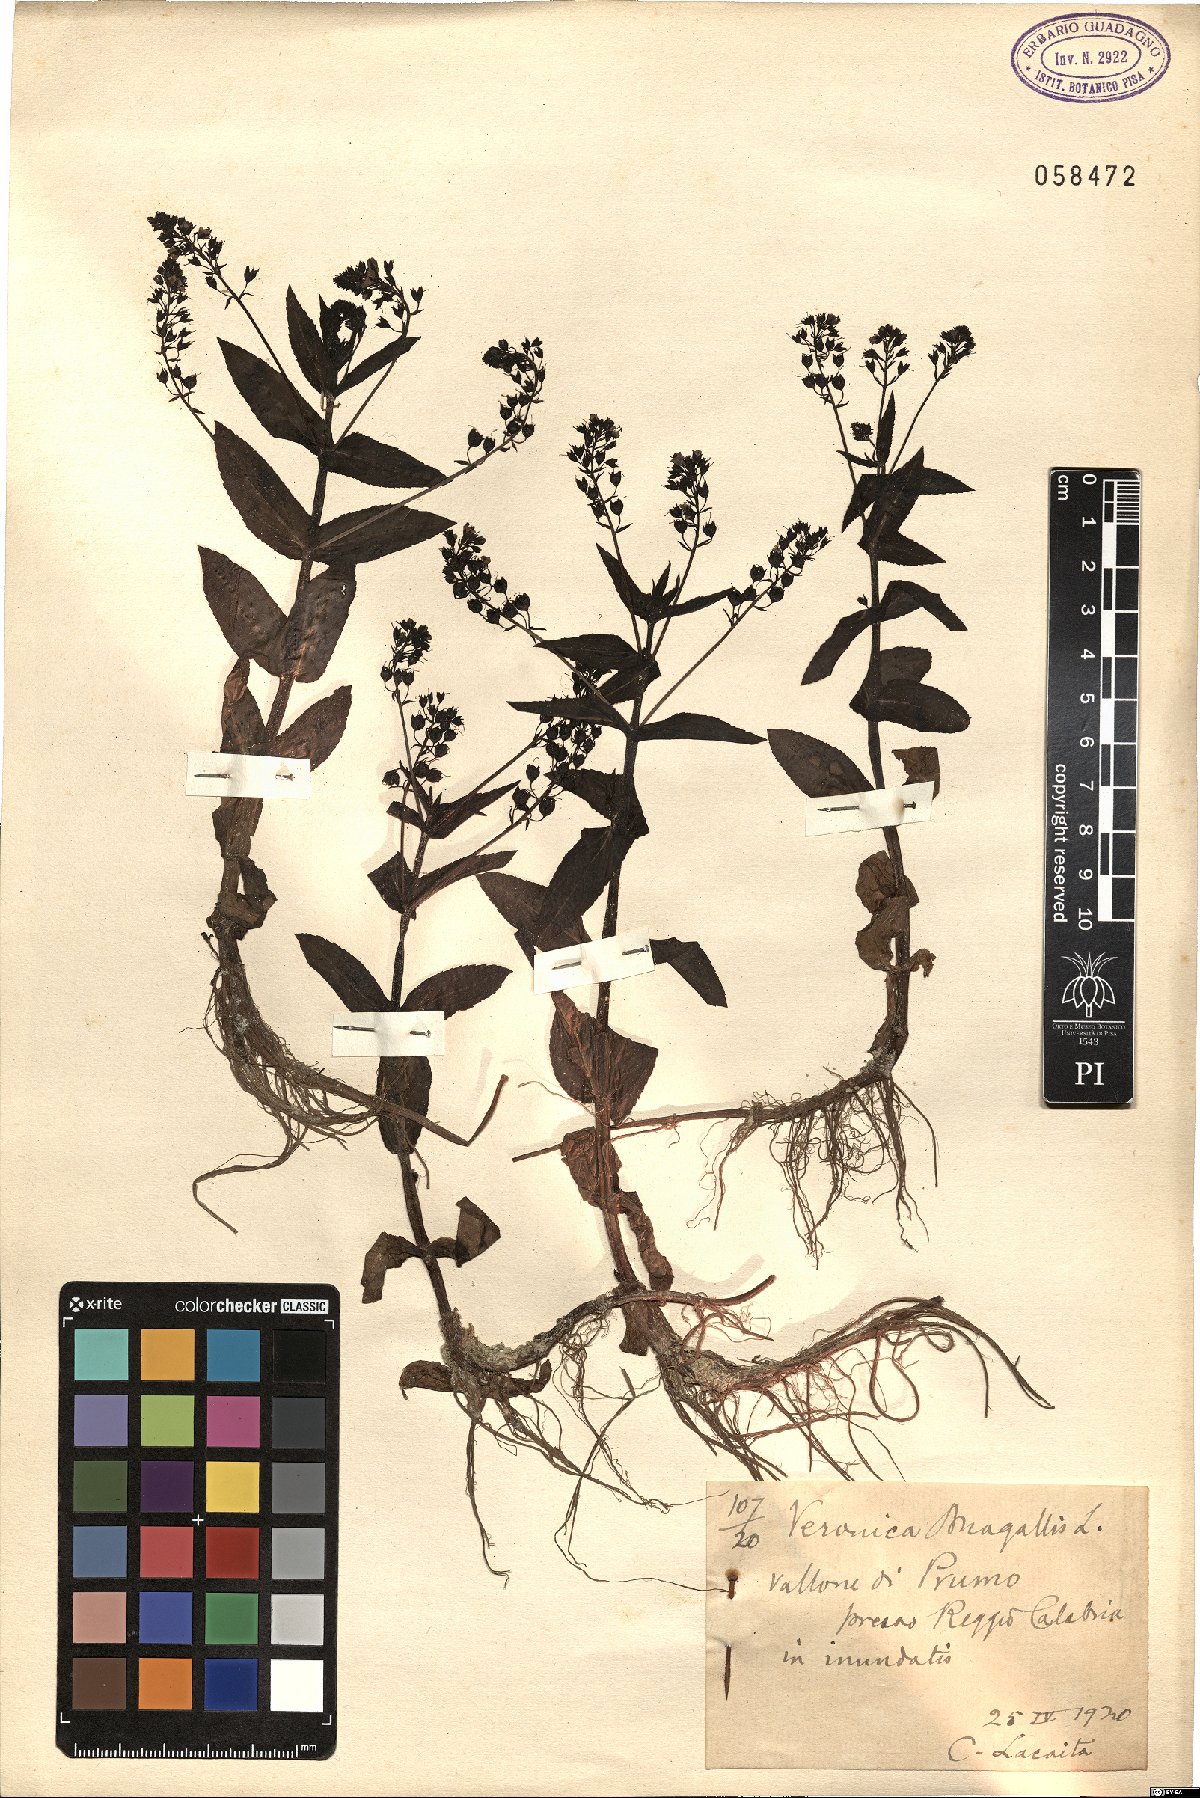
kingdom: Plantae
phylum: Tracheophyta
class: Magnoliopsida
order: Lamiales
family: Plantaginaceae
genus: Veronica
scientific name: Veronica anagallis-aquatica
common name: Water speedwell
